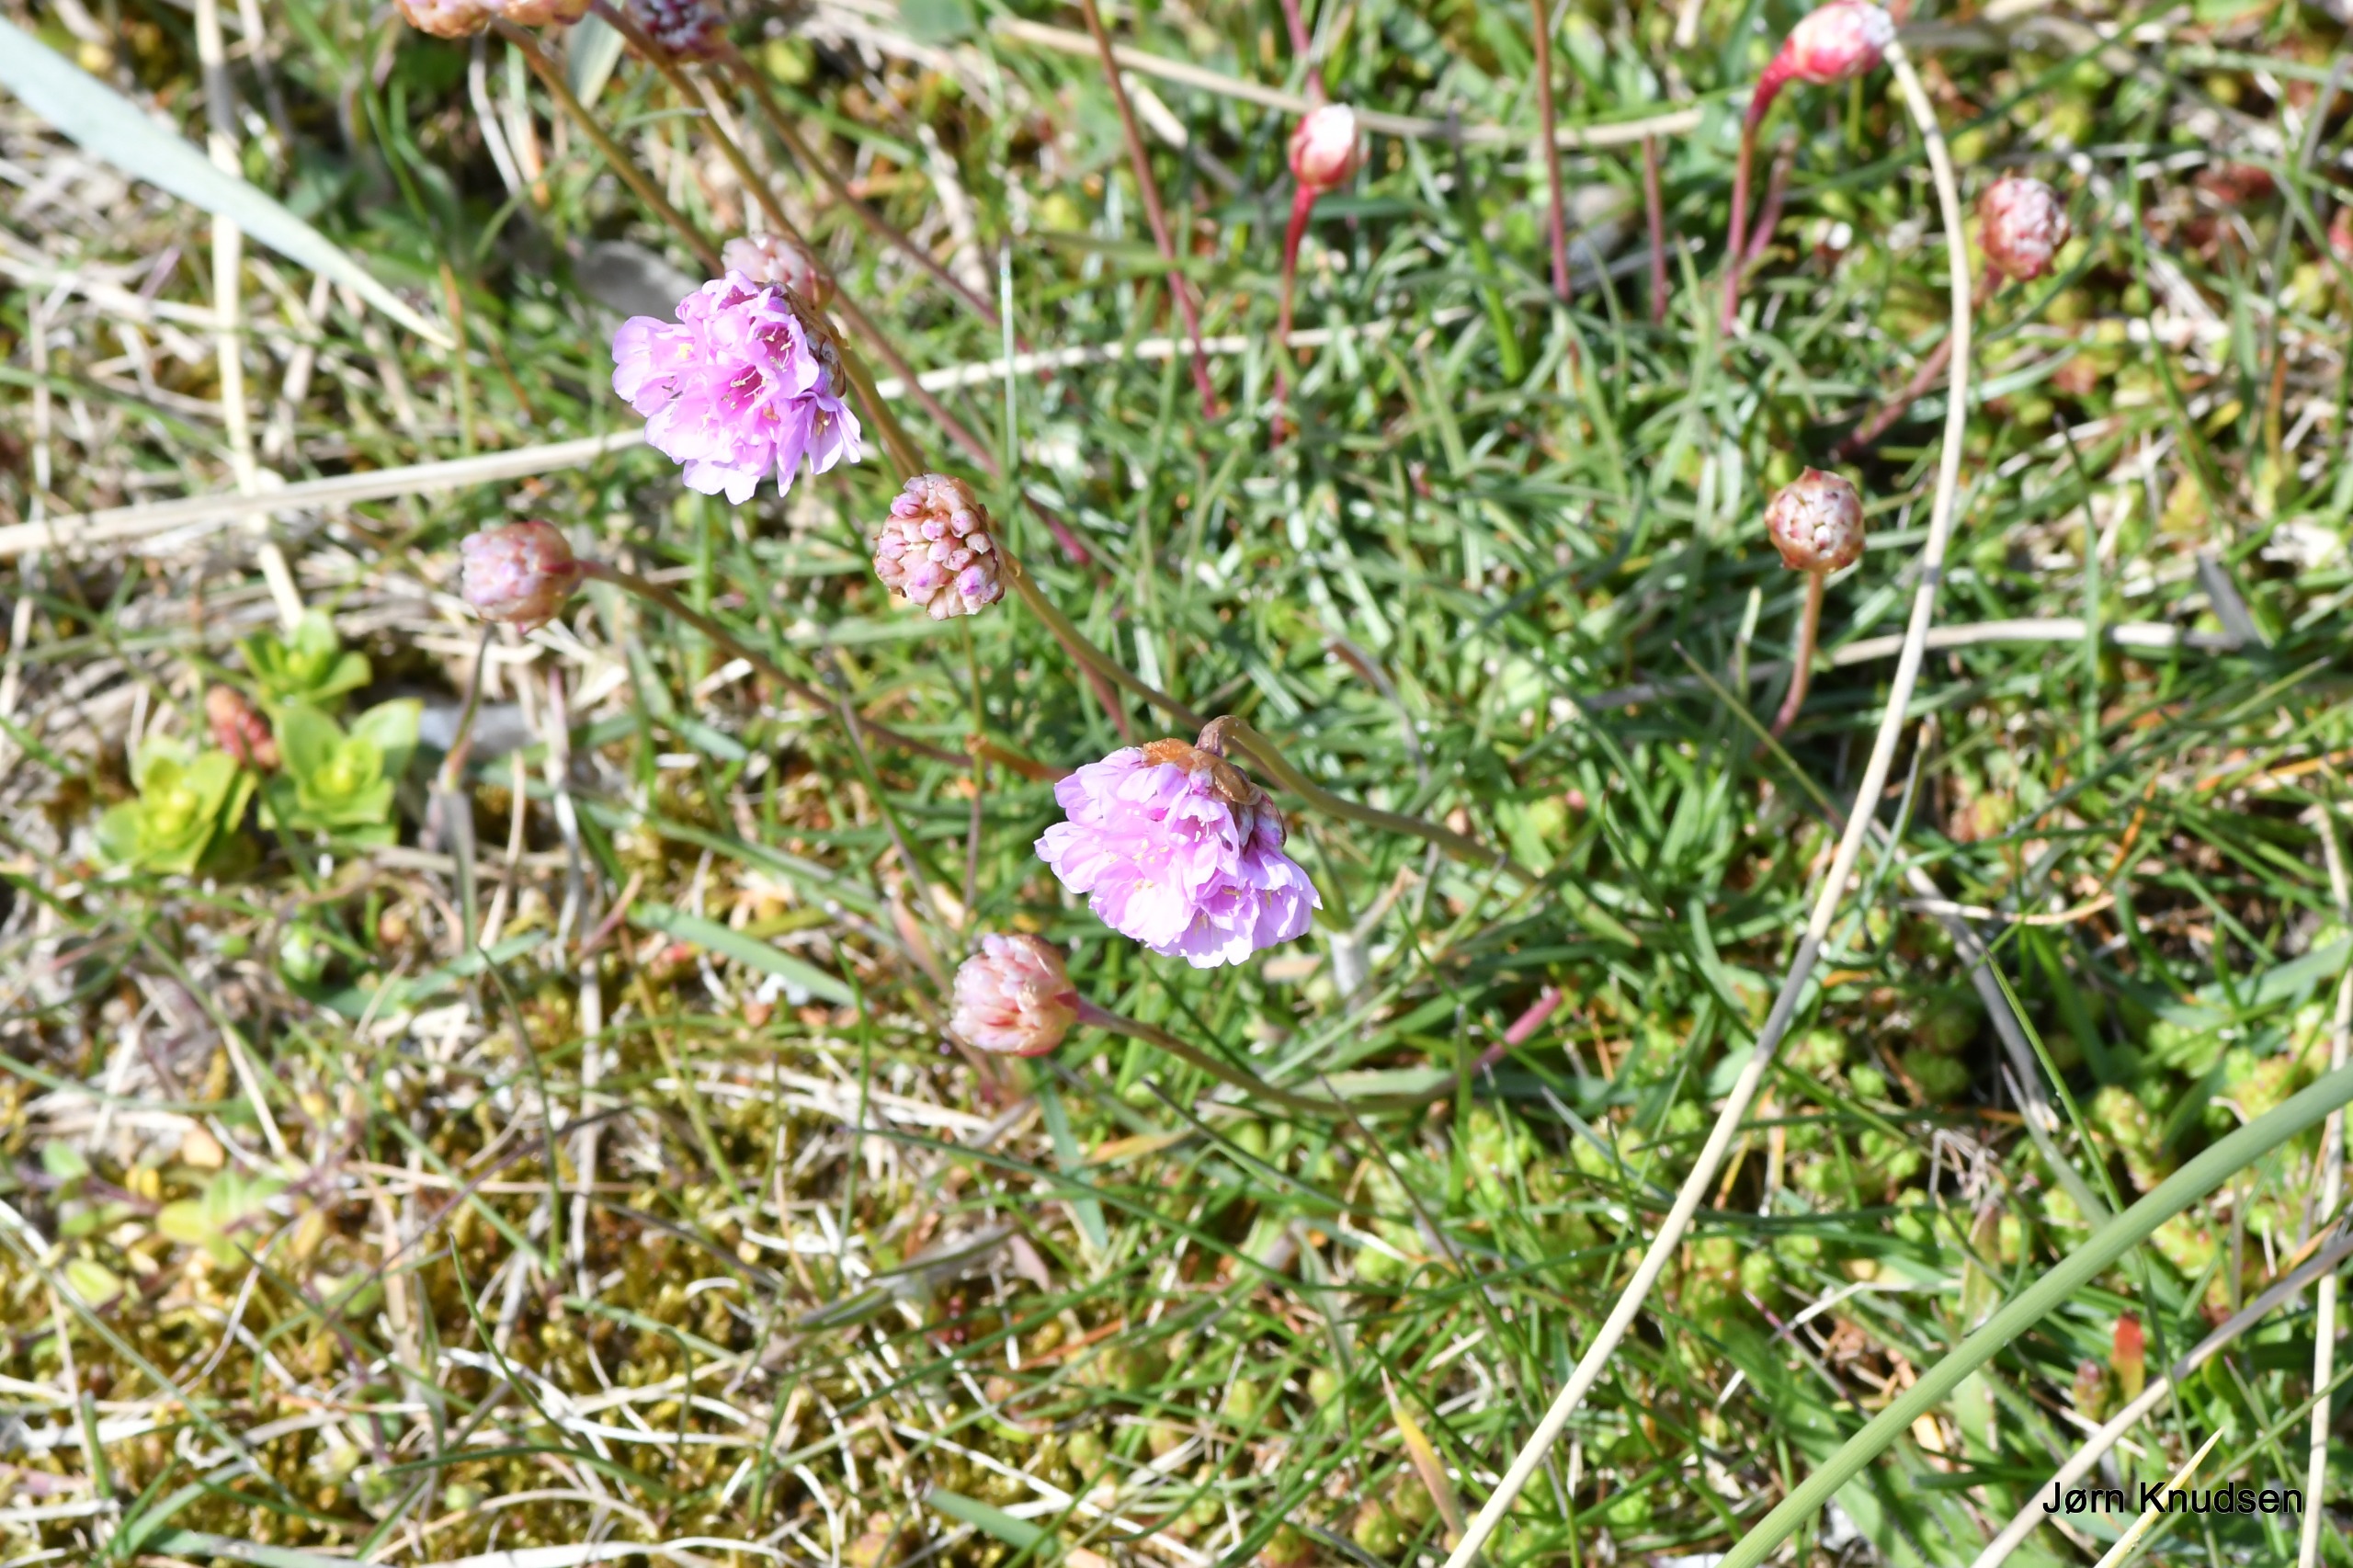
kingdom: Plantae
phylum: Tracheophyta
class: Magnoliopsida
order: Caryophyllales
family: Plumbaginaceae
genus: Armeria
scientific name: Armeria maritima
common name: Engelskgræs
